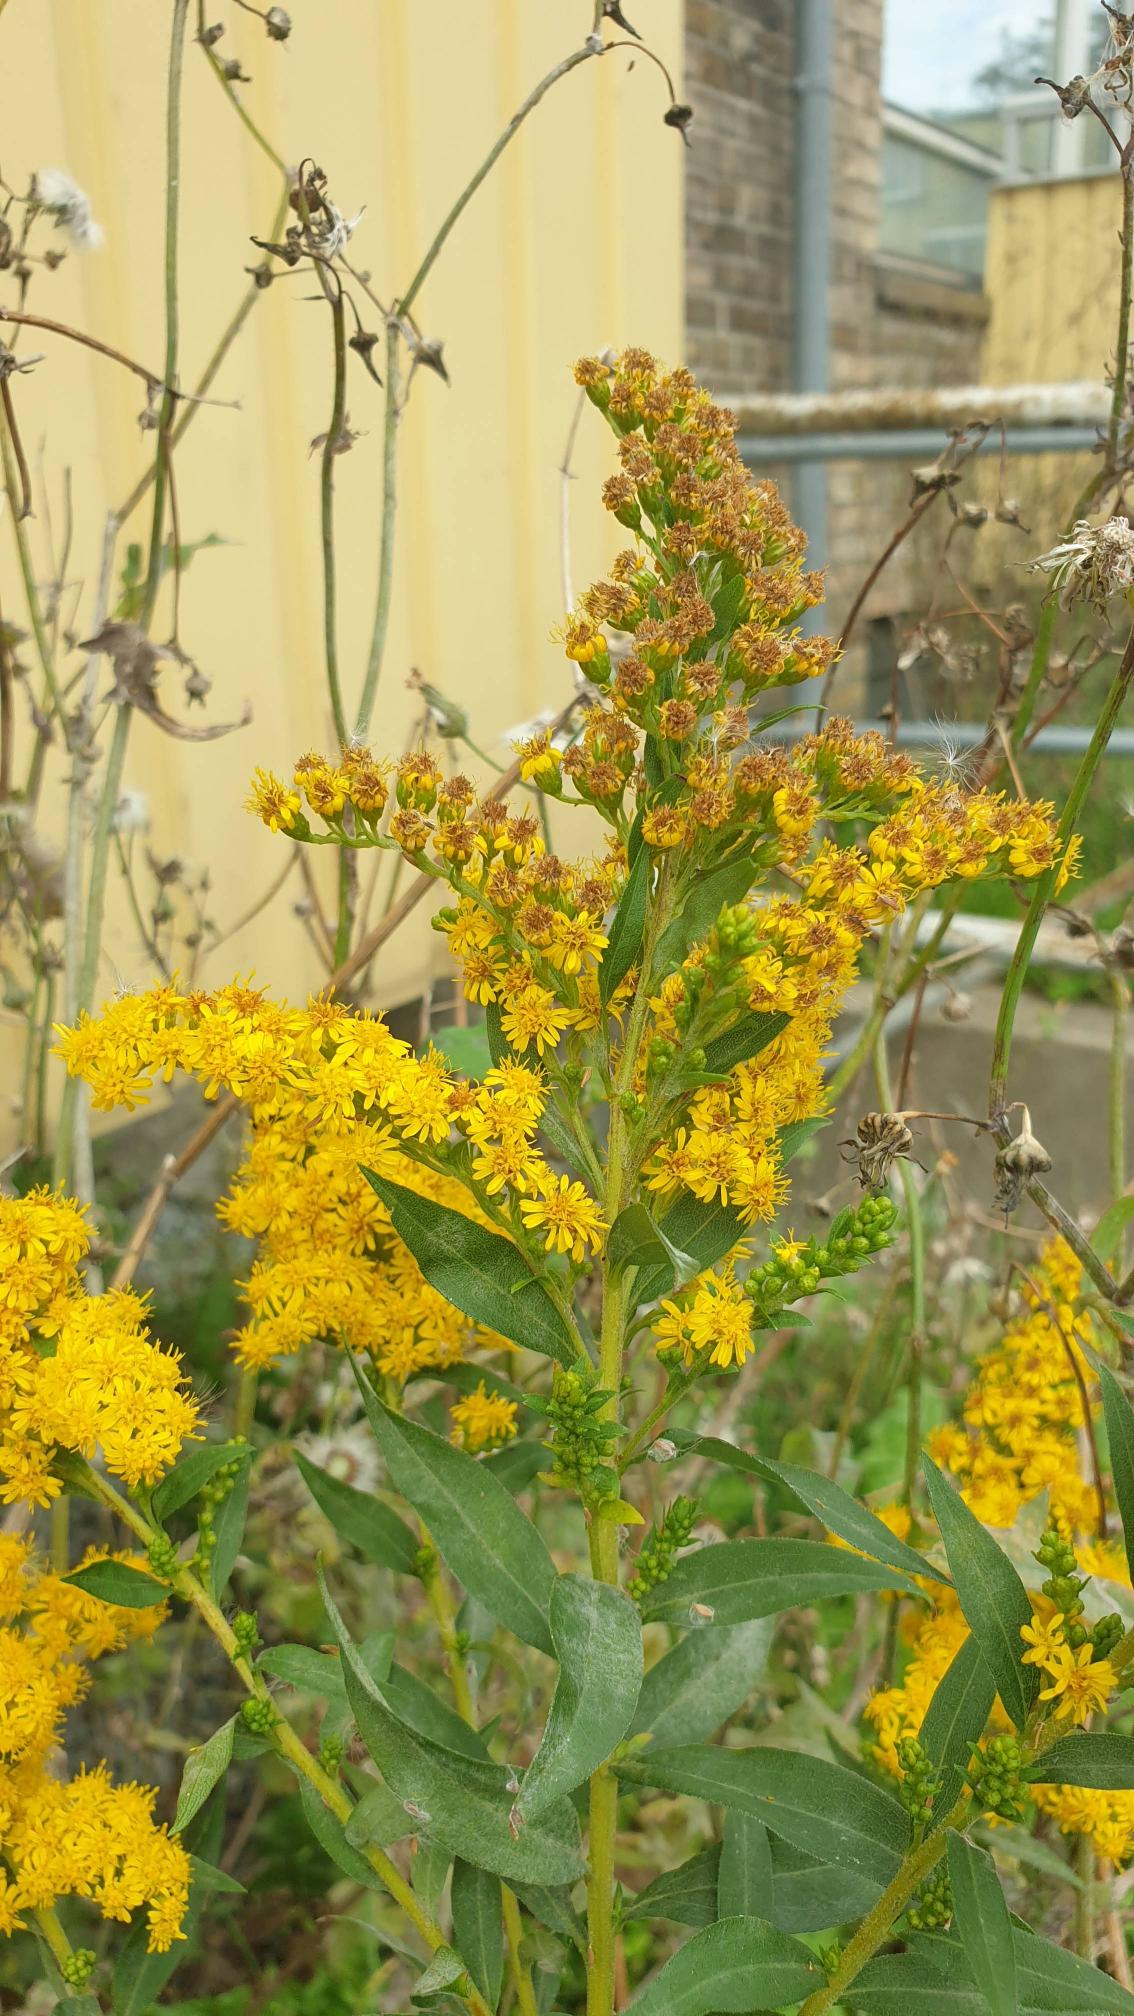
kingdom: Plantae
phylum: Tracheophyta
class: Magnoliopsida
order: Asterales
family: Asteraceae
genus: Solidago
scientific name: Solidago canadensis
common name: Kanadisk gyldenris
